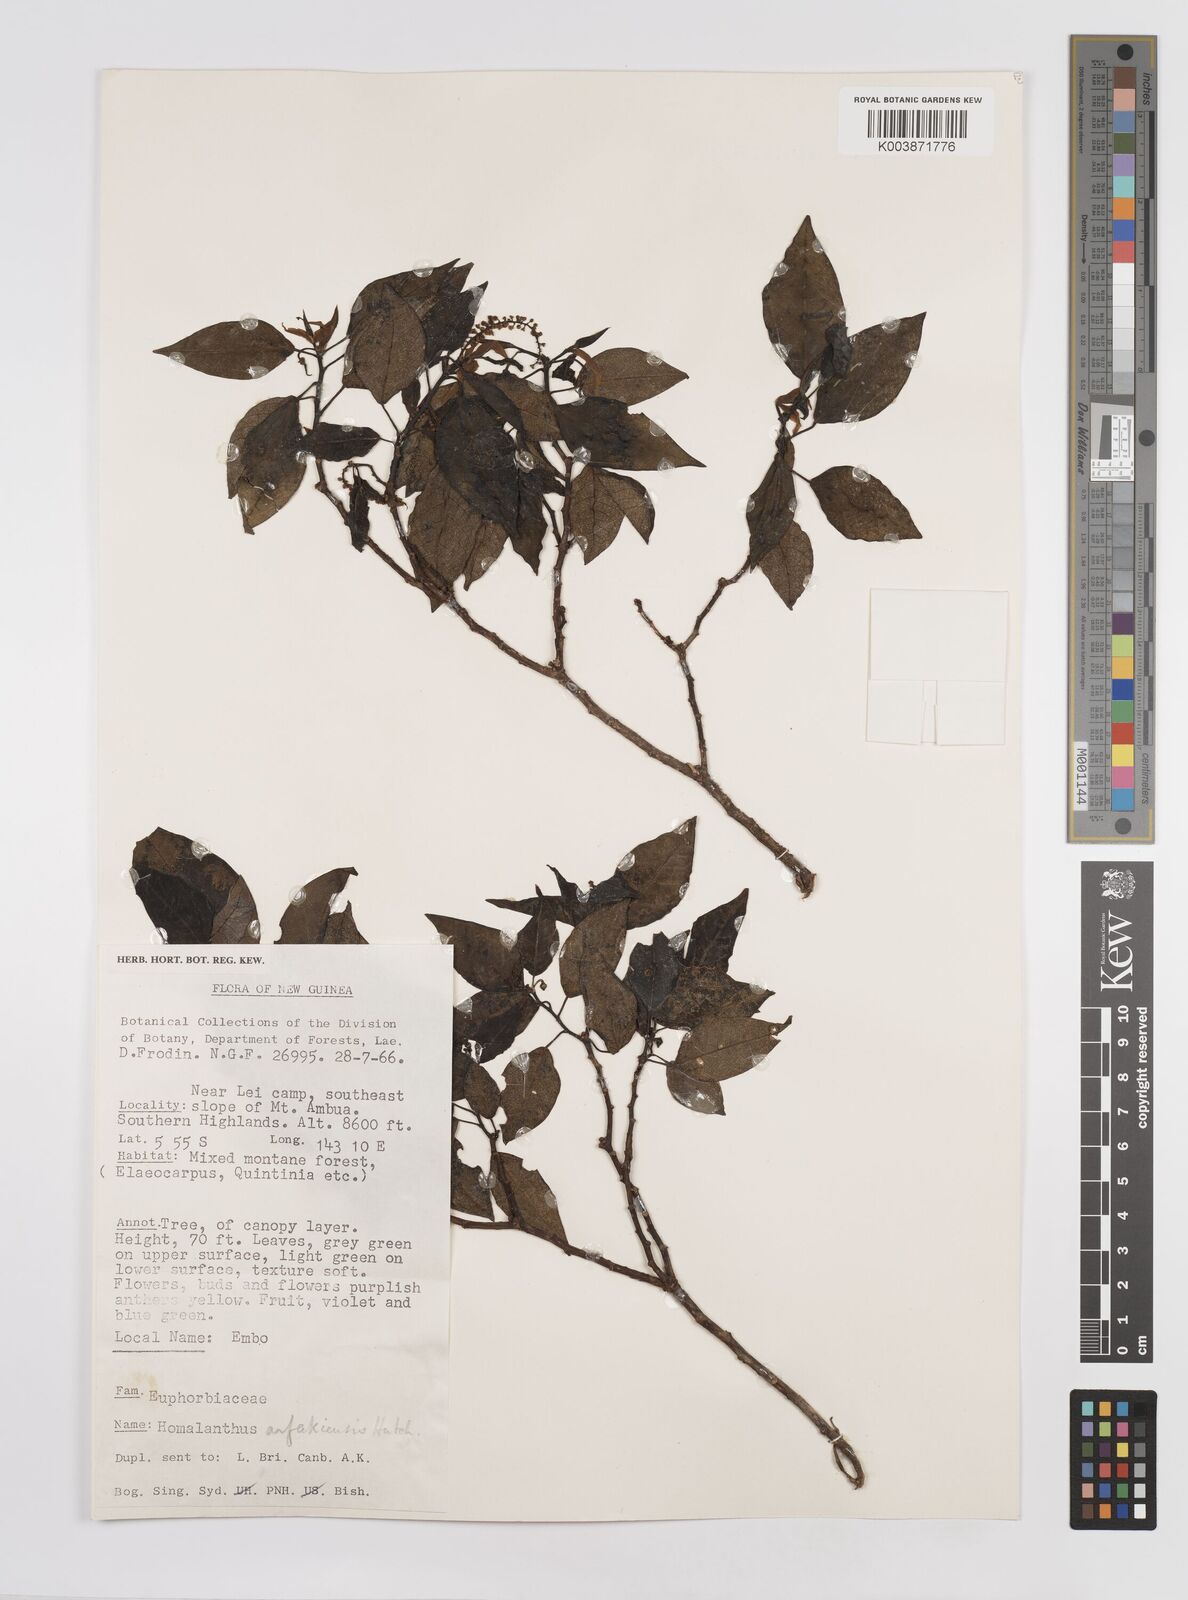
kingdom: Plantae
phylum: Tracheophyta
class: Magnoliopsida
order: Malpighiales
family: Euphorbiaceae
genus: Homalanthus
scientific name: Homalanthus arfakiensis
